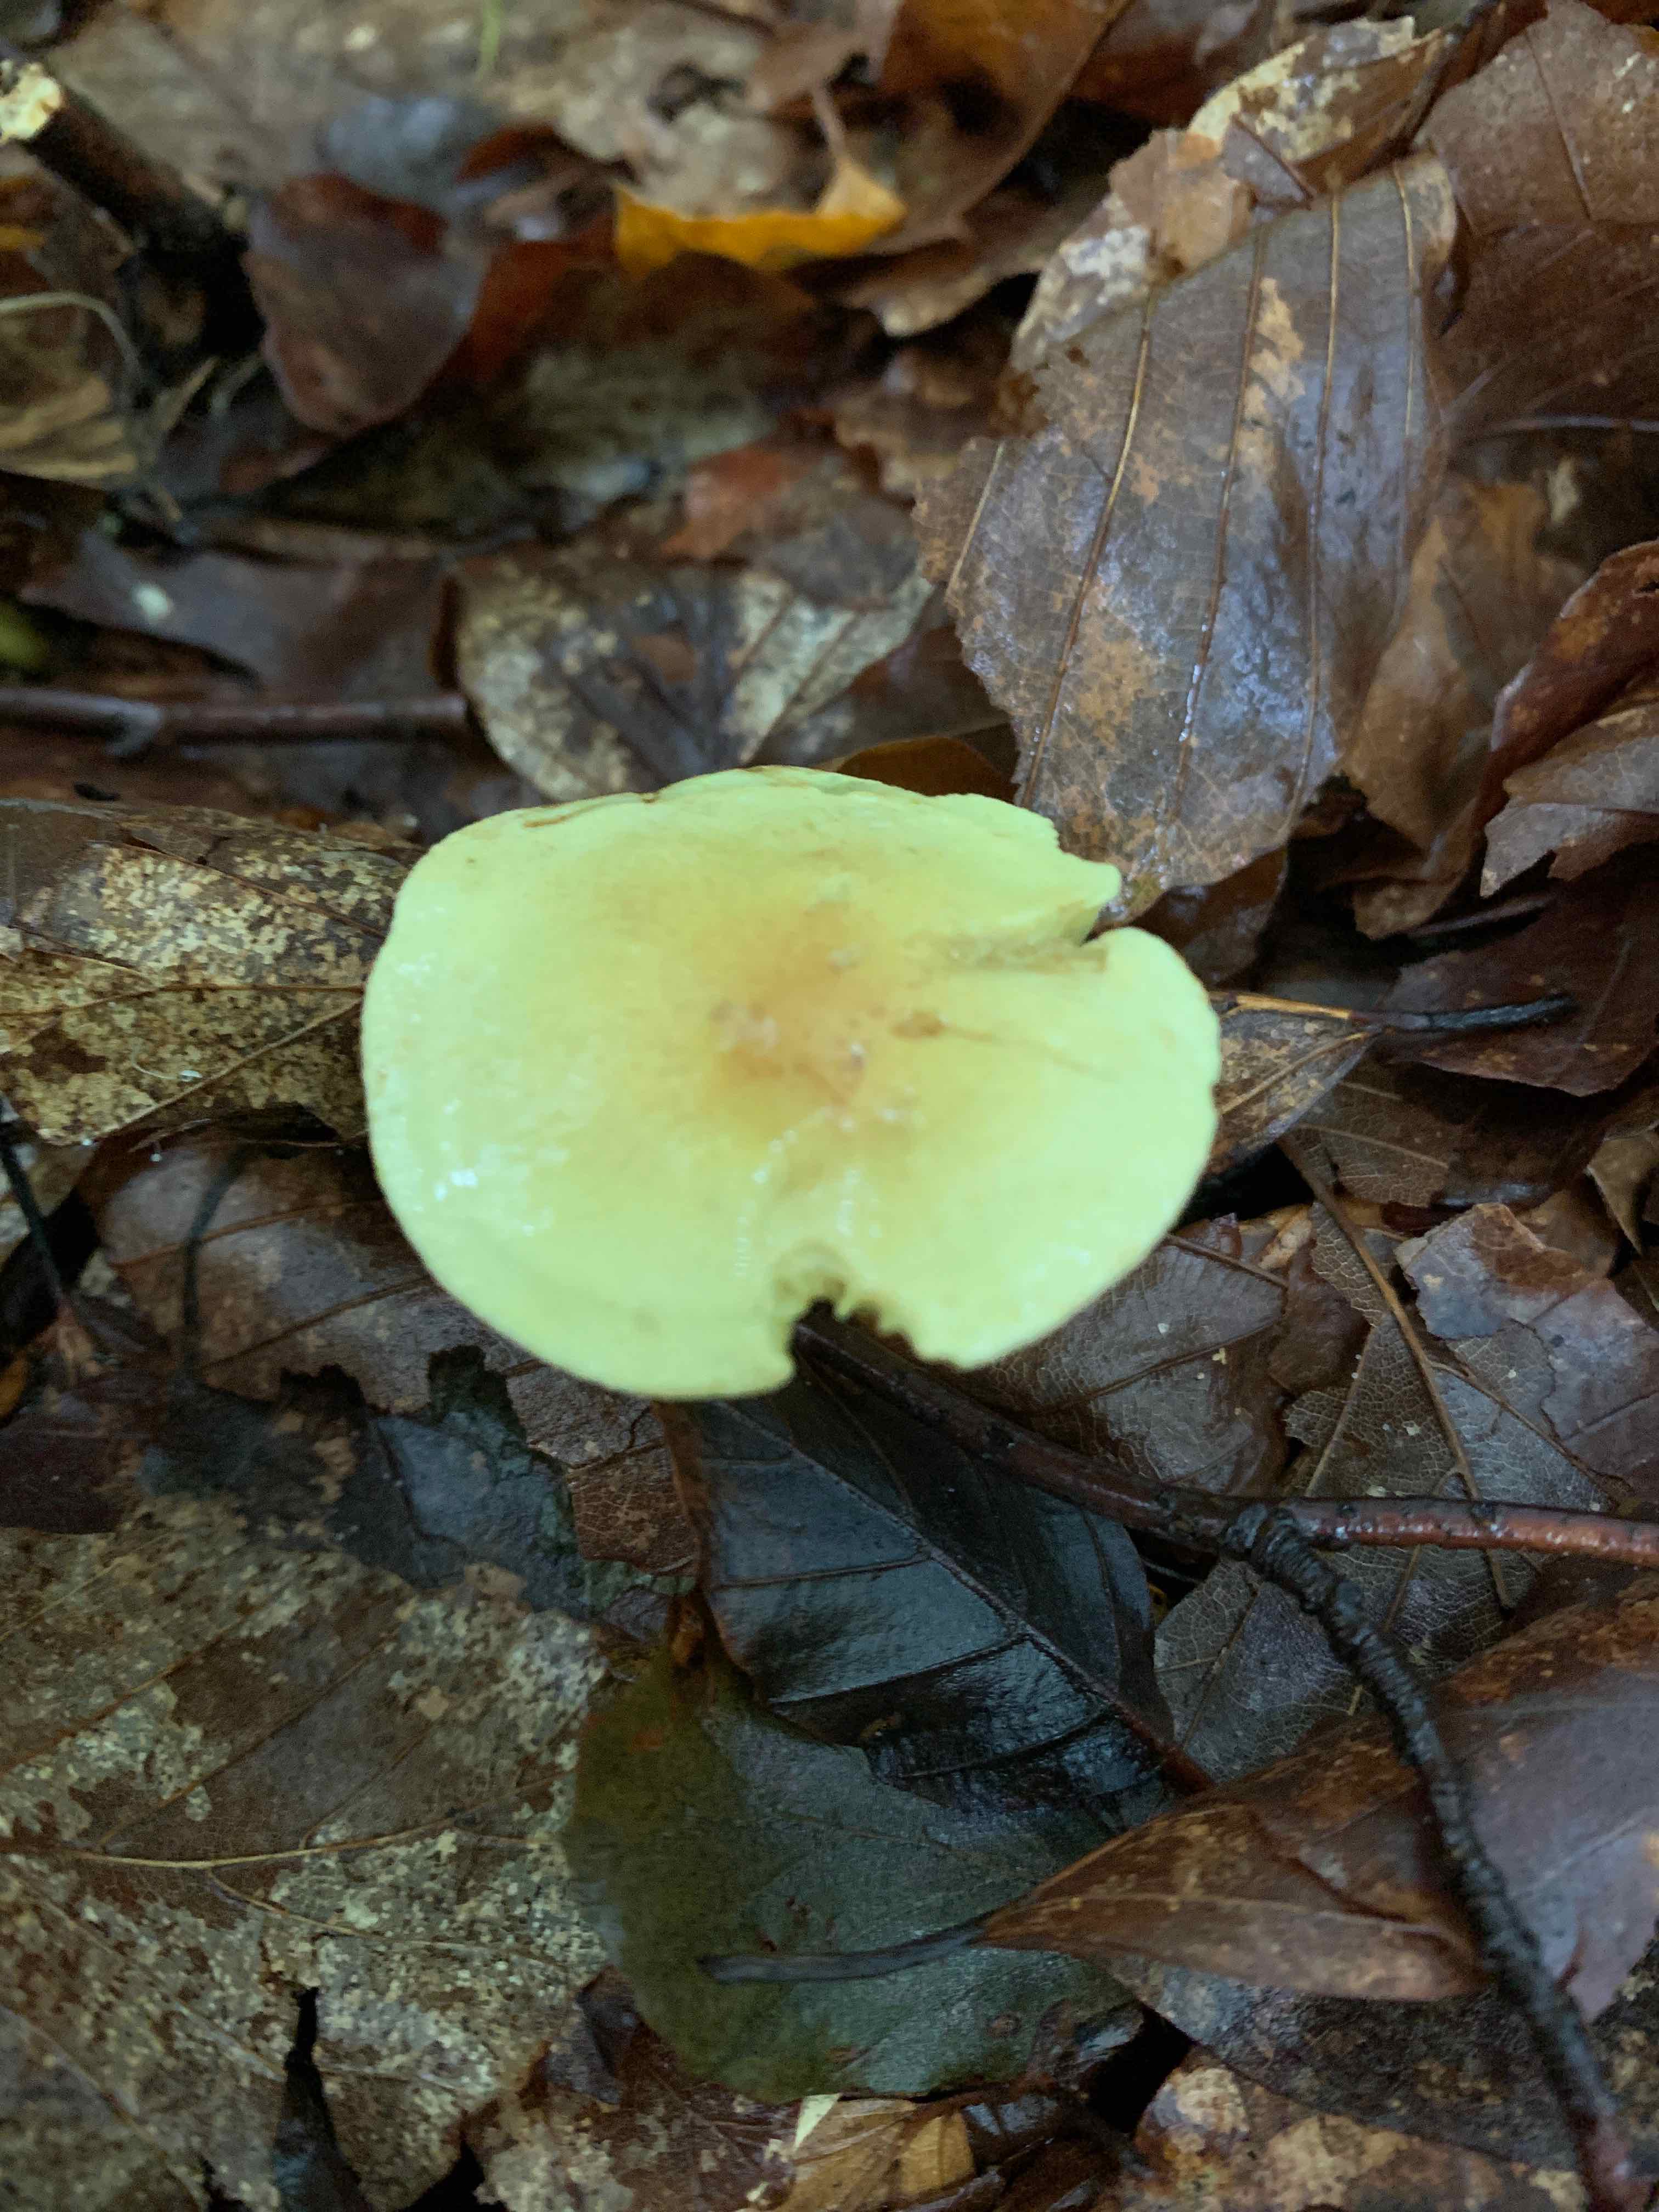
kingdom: Fungi
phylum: Basidiomycota
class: Agaricomycetes
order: Agaricales
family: Tricholomataceae
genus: Tricholoma
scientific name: Tricholoma sulphureum
